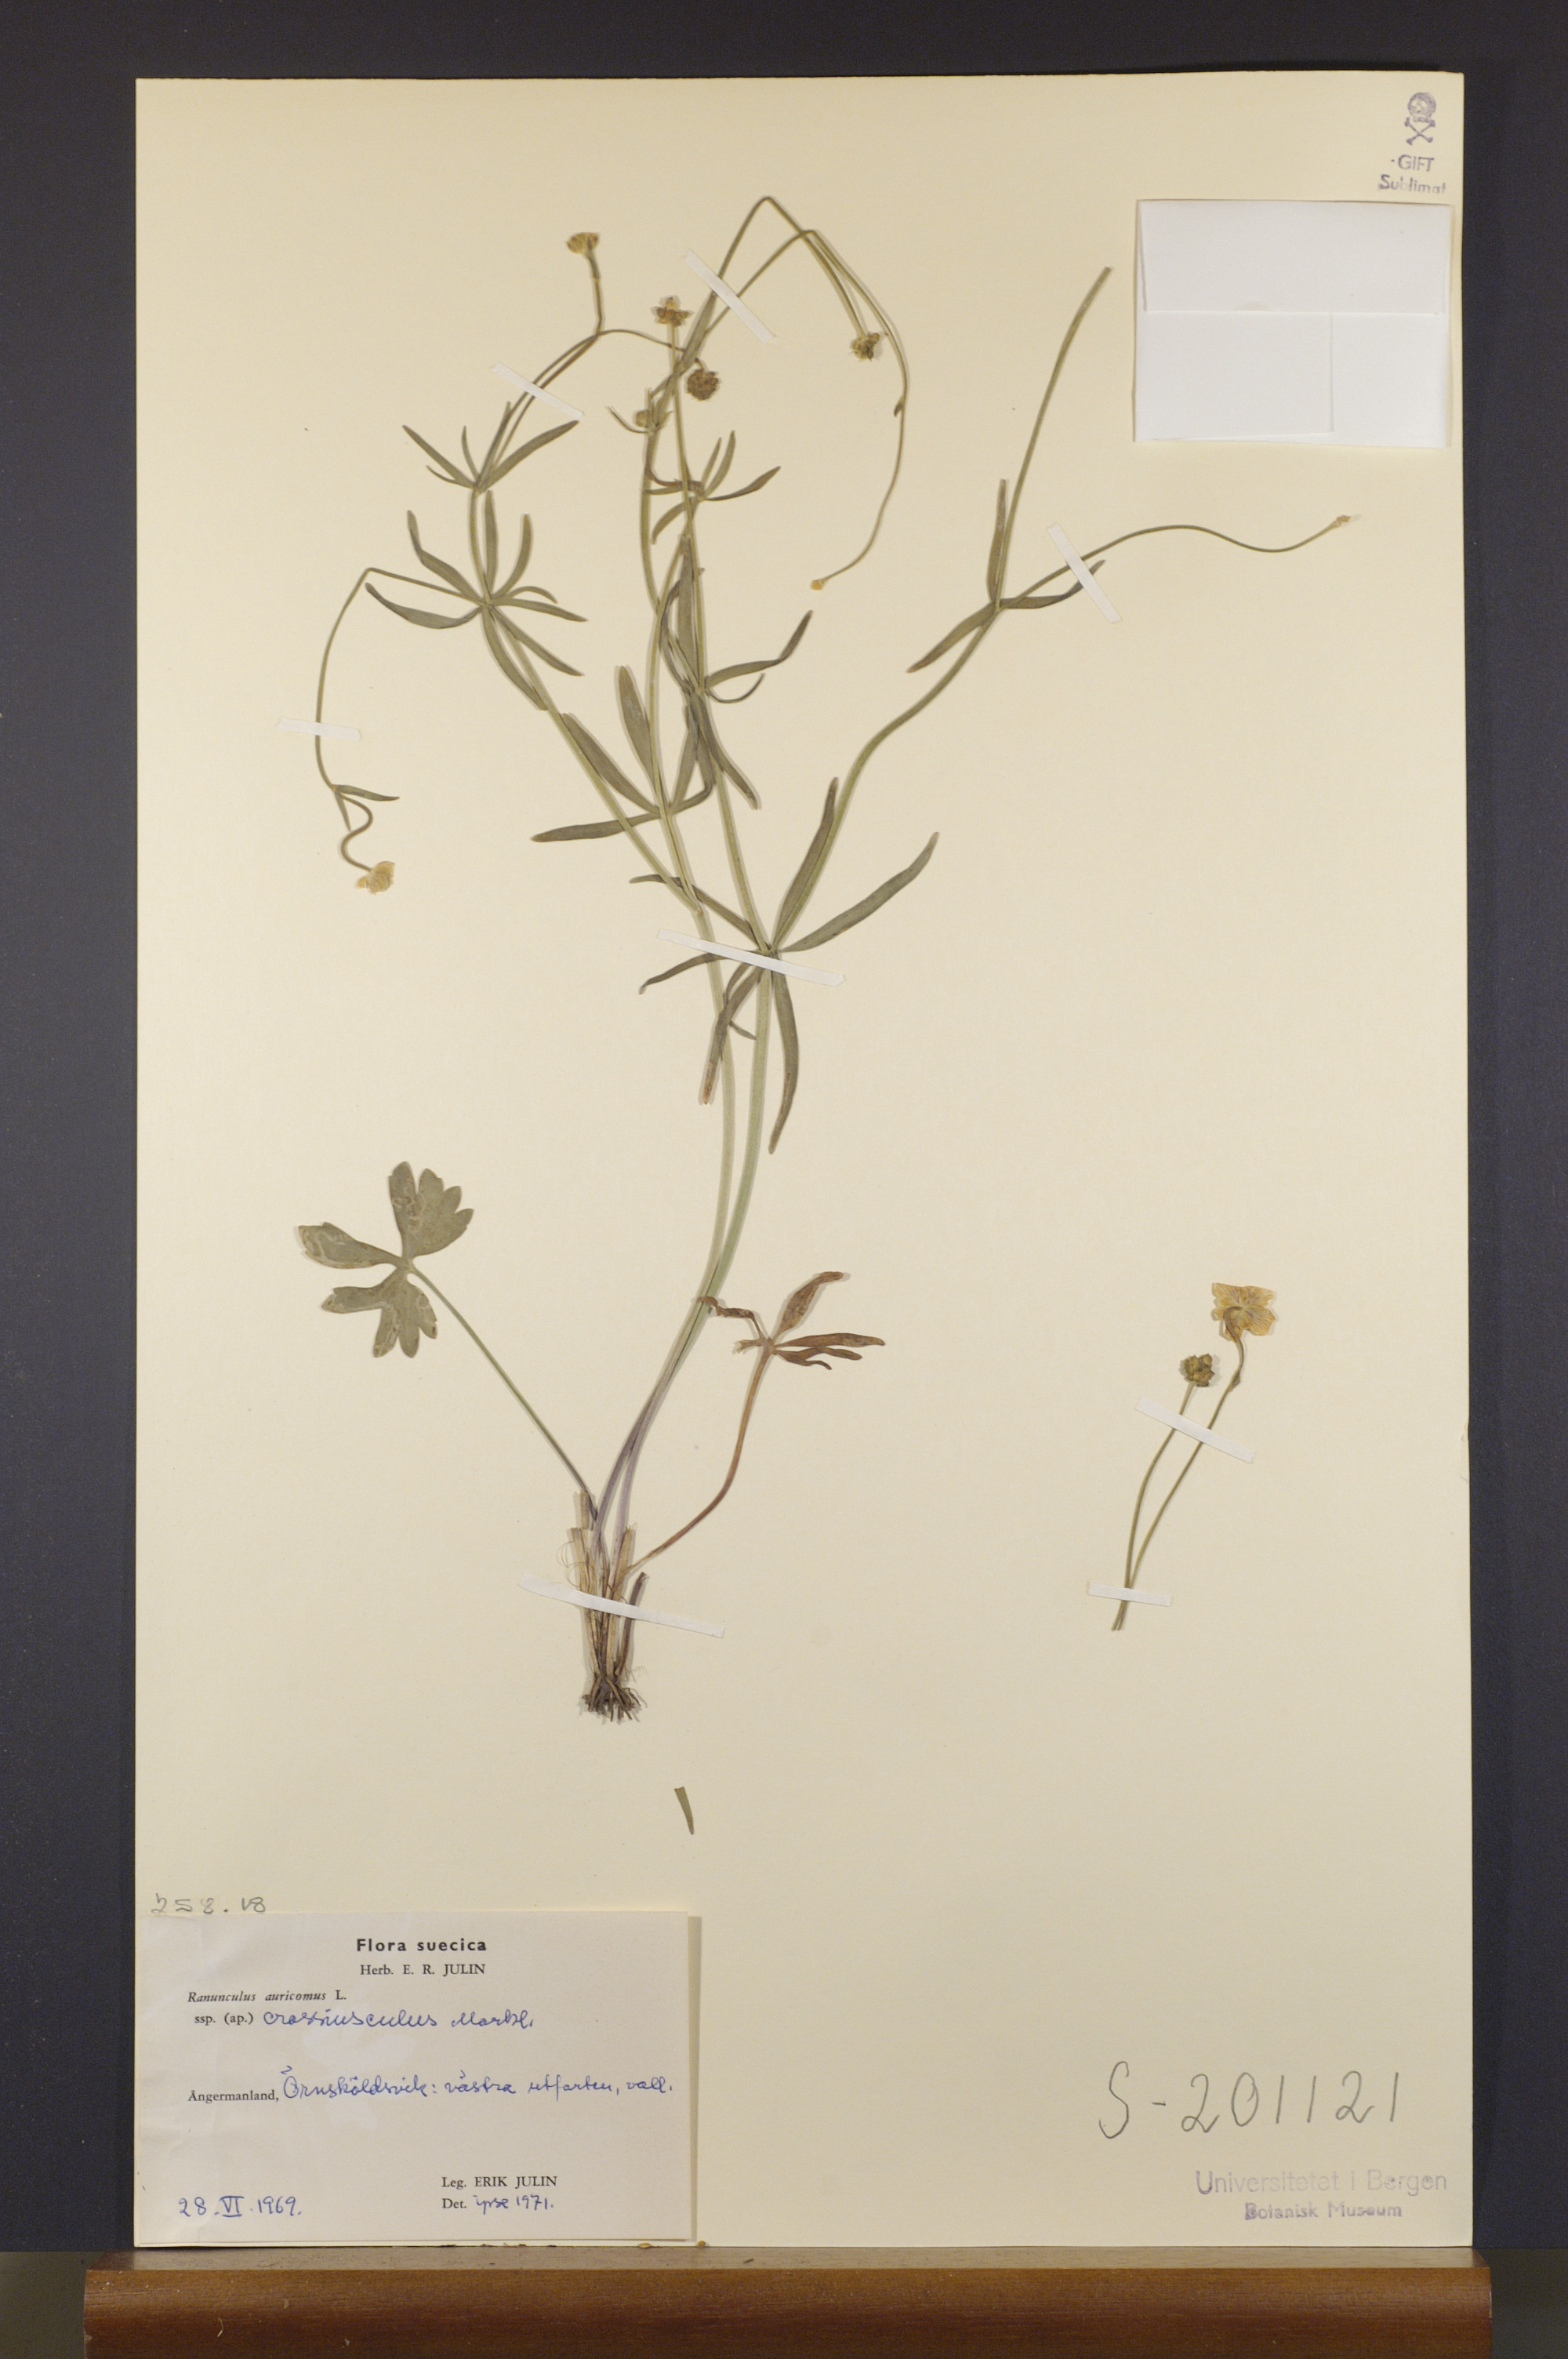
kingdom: Plantae
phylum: Tracheophyta
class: Magnoliopsida
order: Ranunculales
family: Ranunculaceae
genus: Ranunculus
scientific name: Ranunculus crassiusculus
